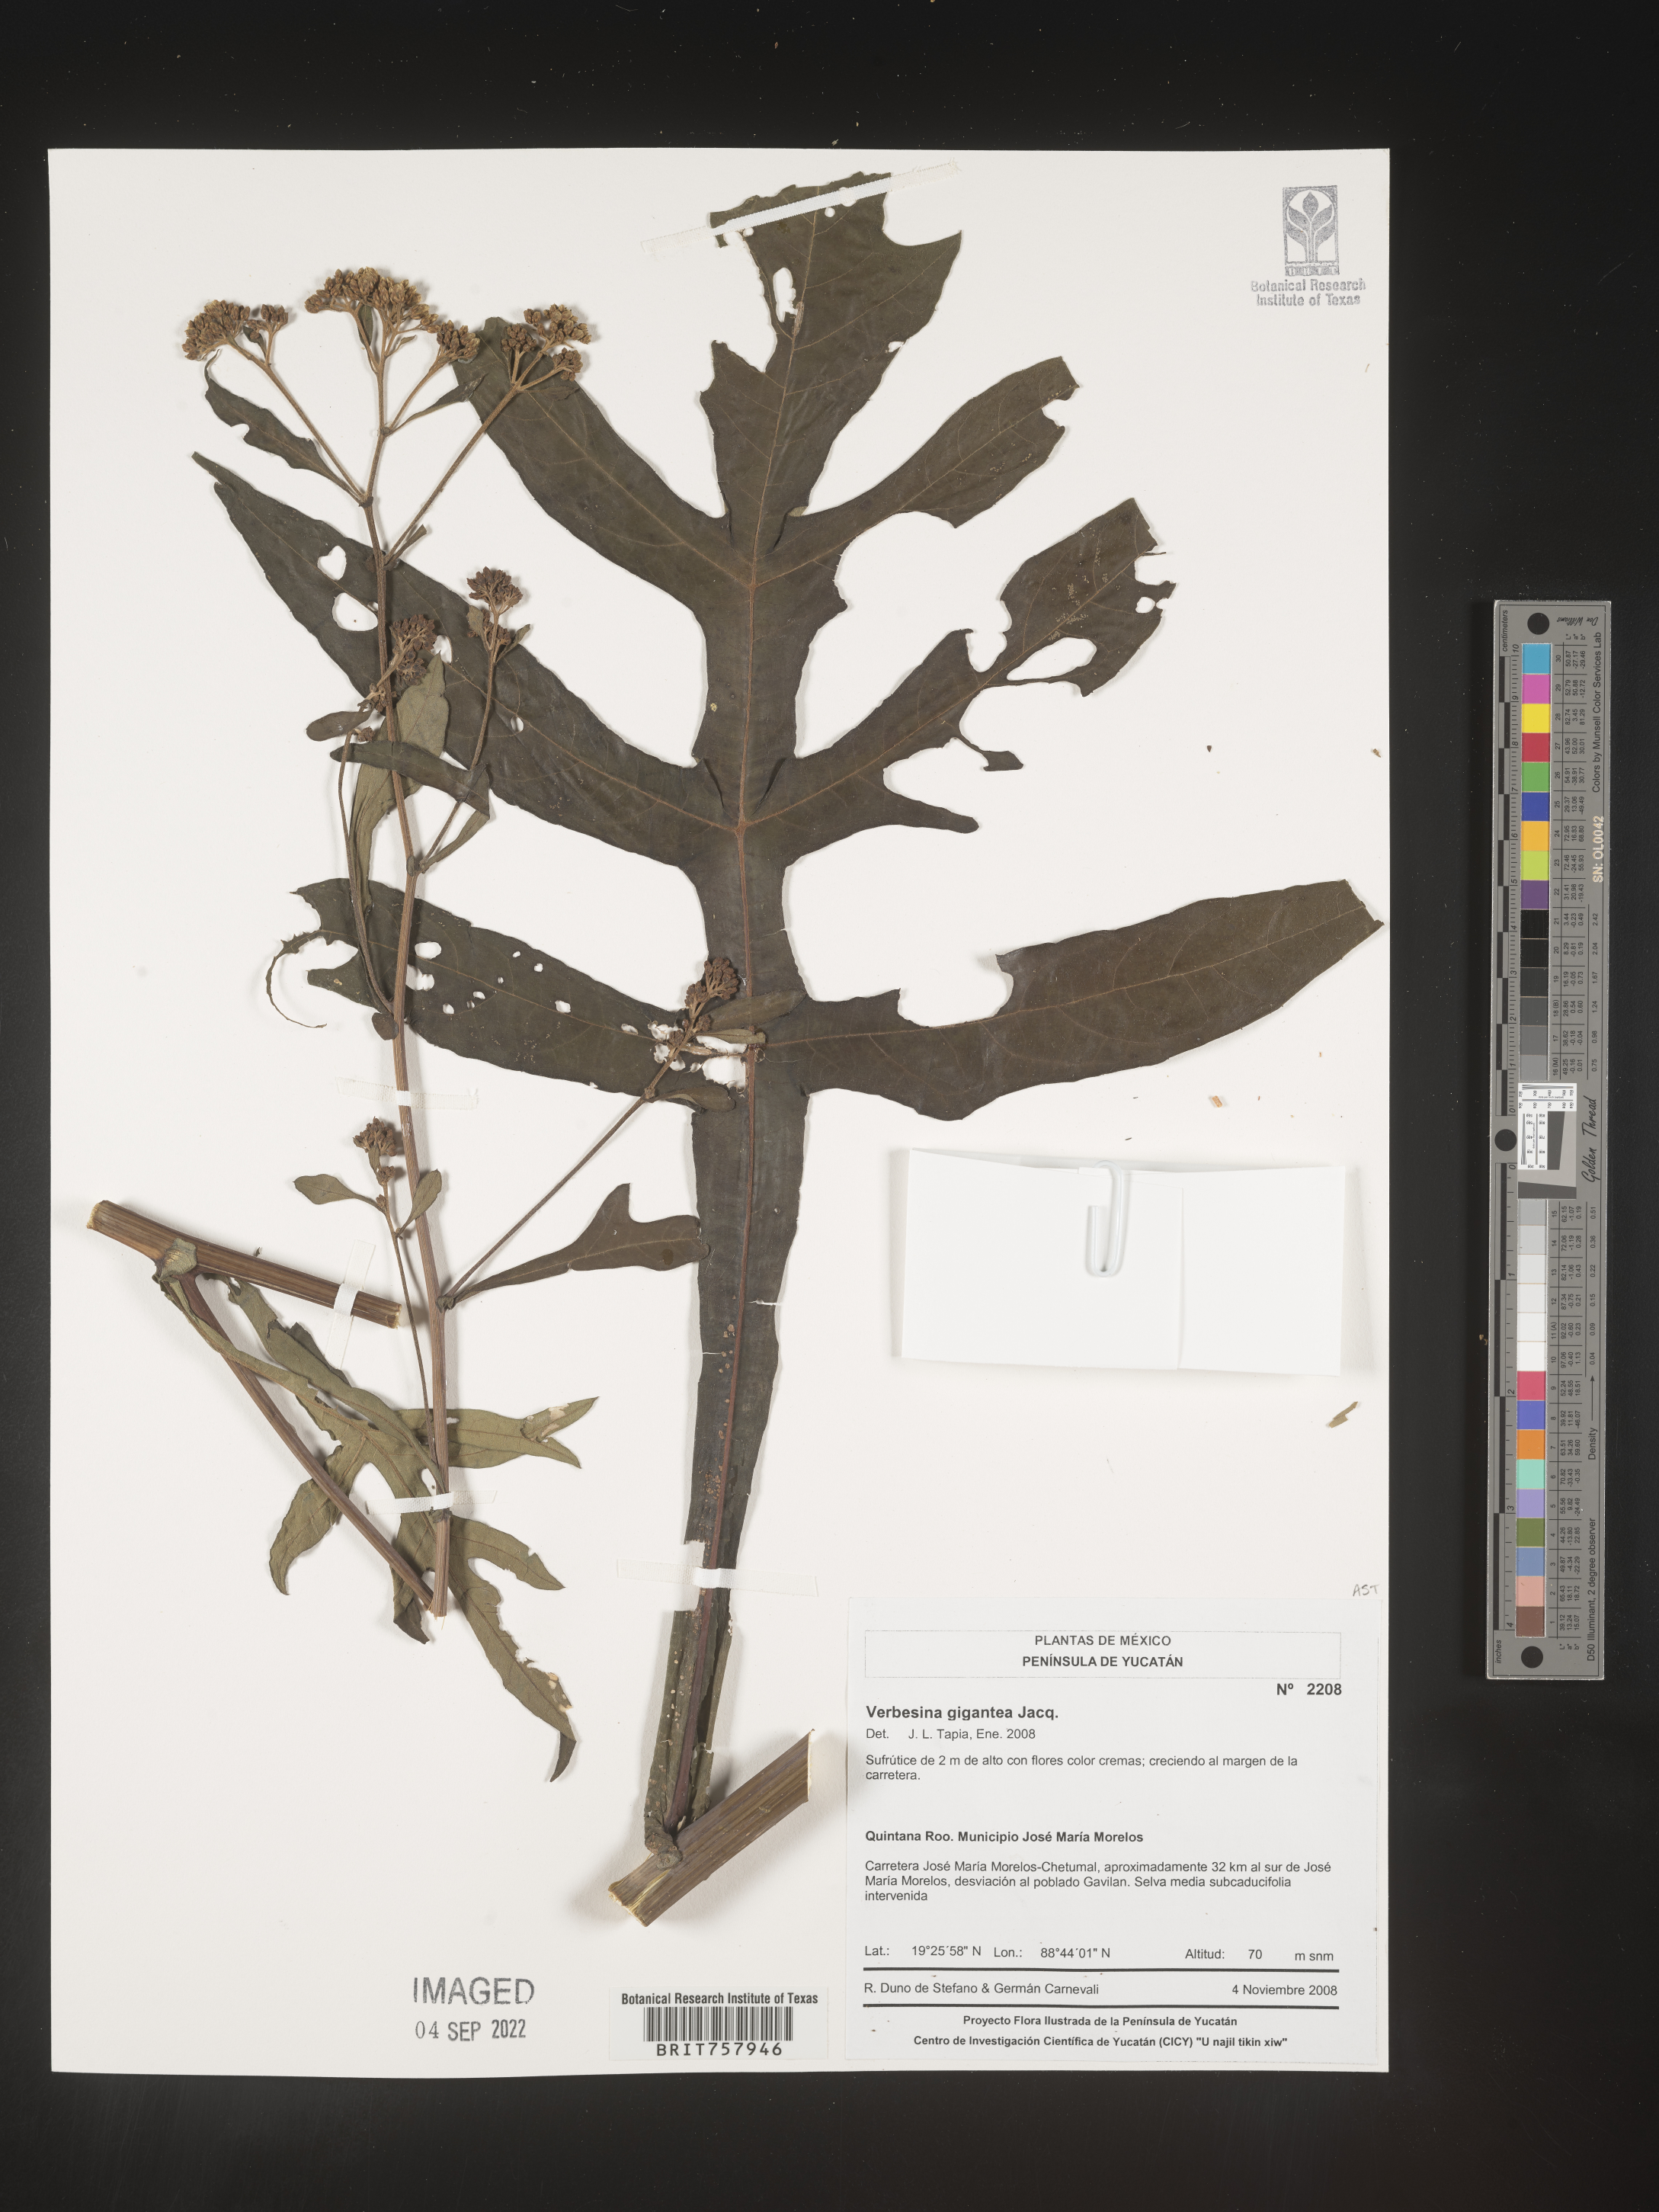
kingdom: Plantae
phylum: Tracheophyta
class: Magnoliopsida
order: Asterales
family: Asteraceae
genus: Verbesina
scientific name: Verbesina
